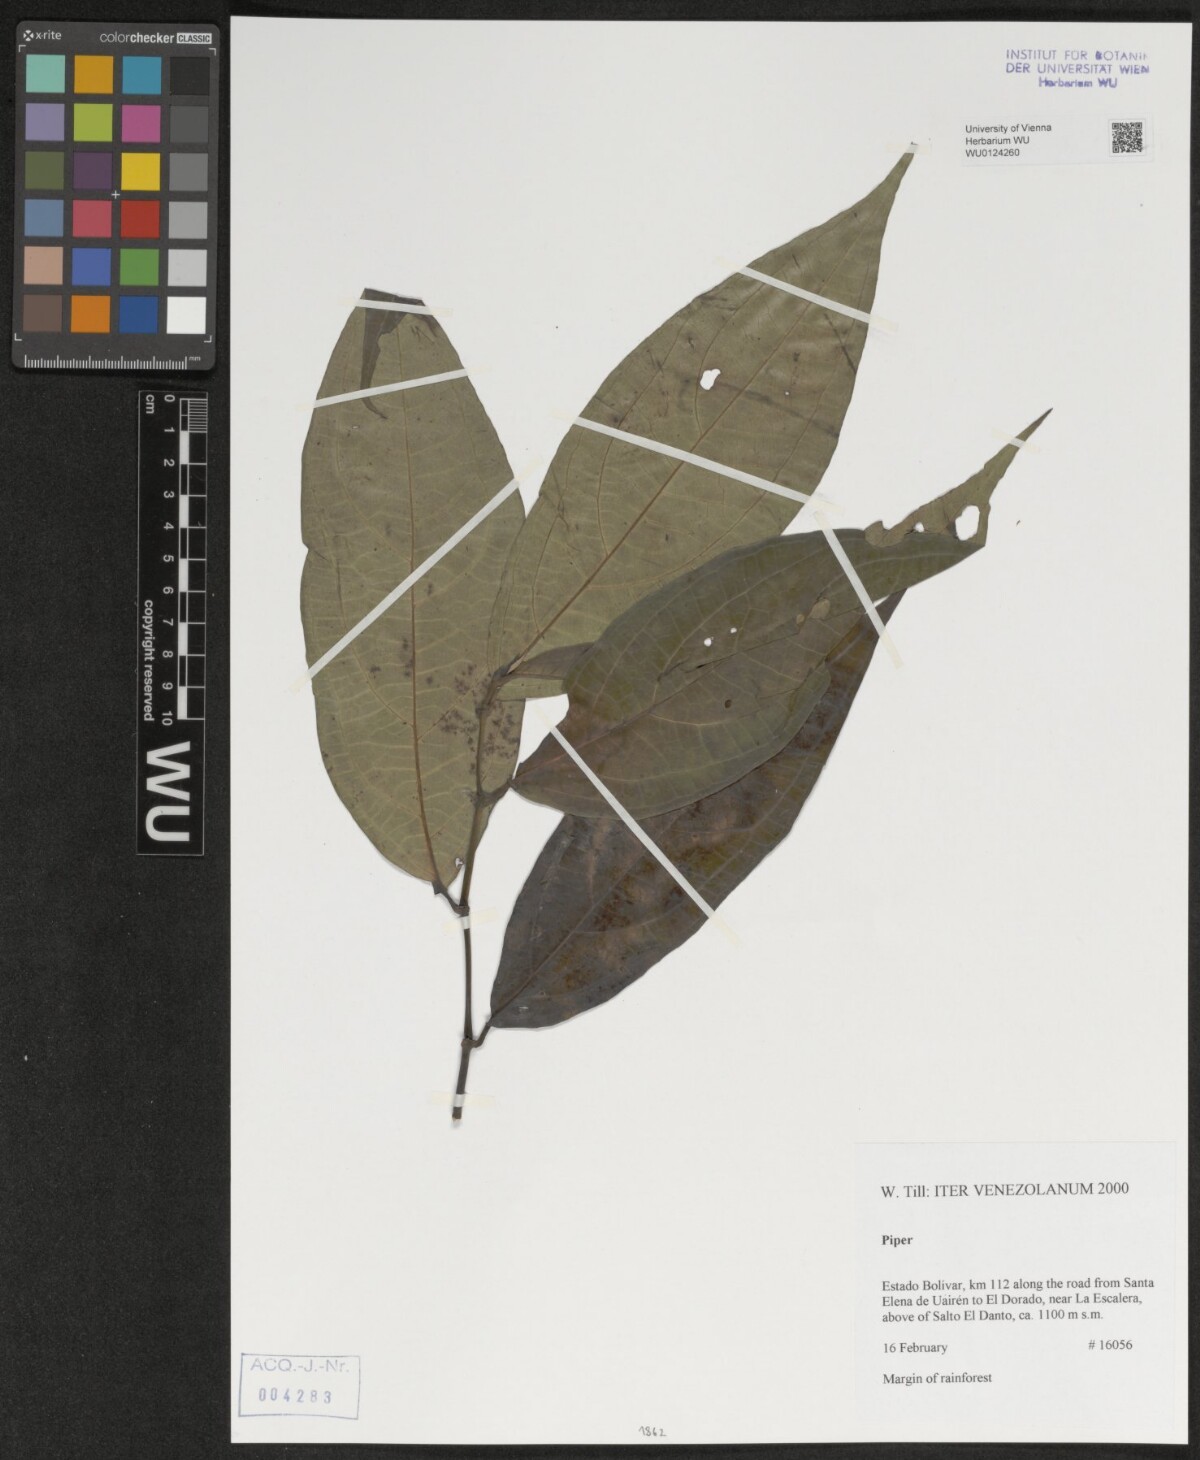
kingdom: Plantae
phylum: Tracheophyta
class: Magnoliopsida
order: Piperales
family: Piperaceae
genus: Piper
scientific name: Piper
